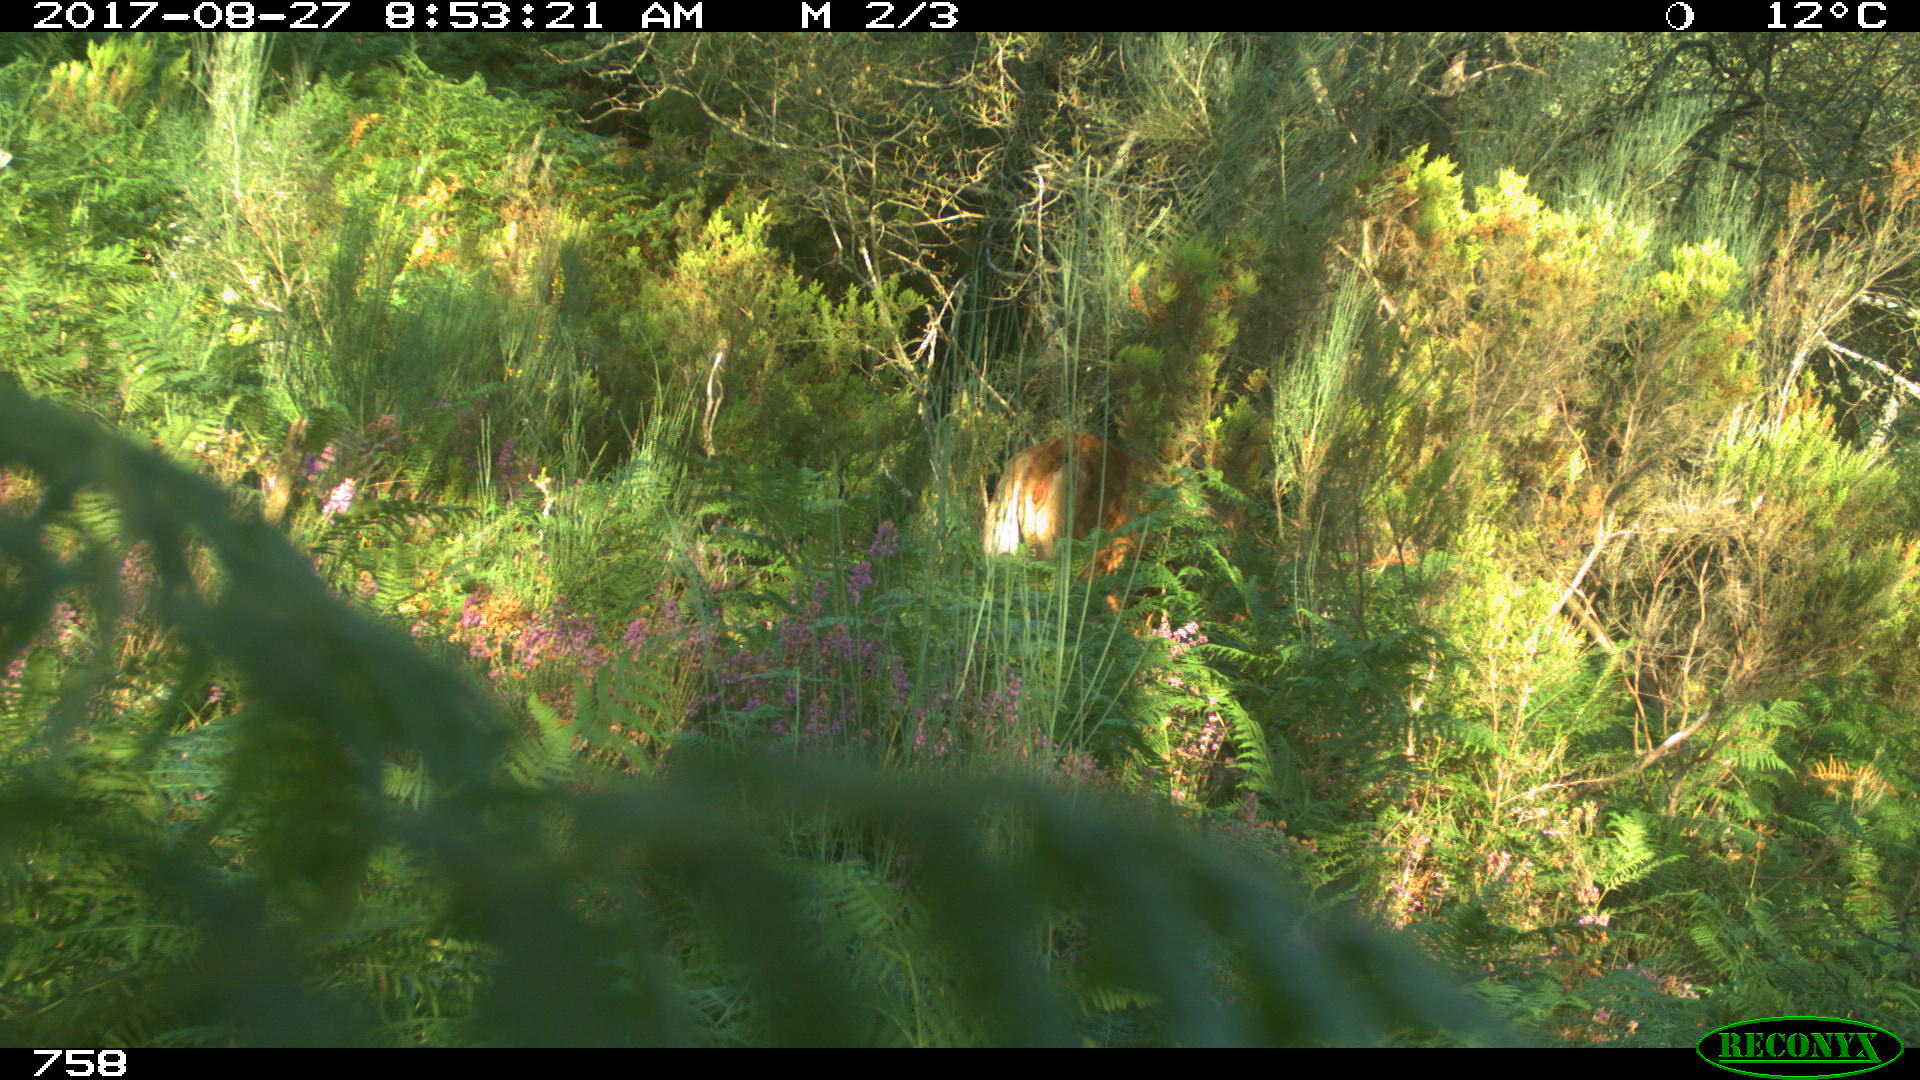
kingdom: Animalia
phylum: Chordata
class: Mammalia
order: Artiodactyla
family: Bovidae
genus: Bos
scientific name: Bos taurus
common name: Domesticated cattle
